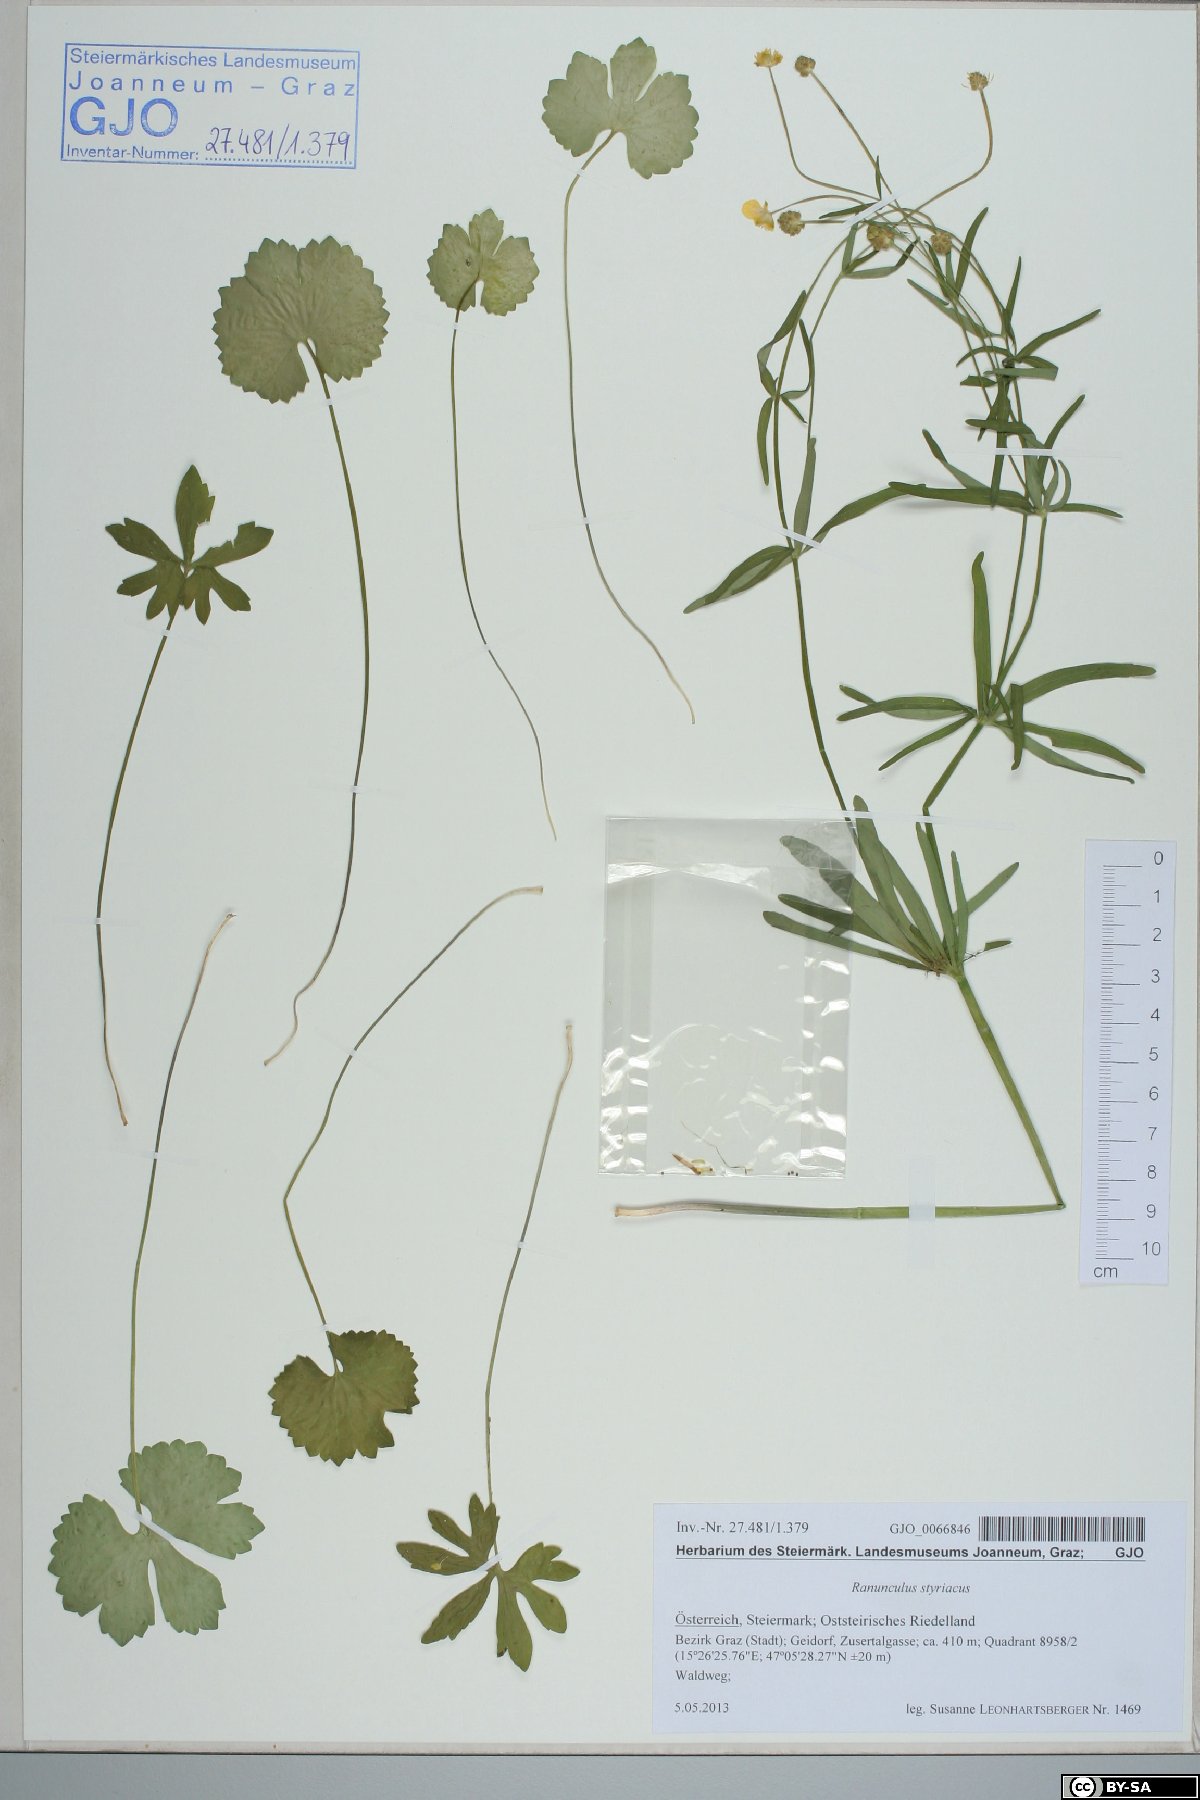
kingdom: Plantae
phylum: Tracheophyta
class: Magnoliopsida
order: Ranunculales
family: Ranunculaceae
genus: Ranunculus
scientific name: Ranunculus styriacus
